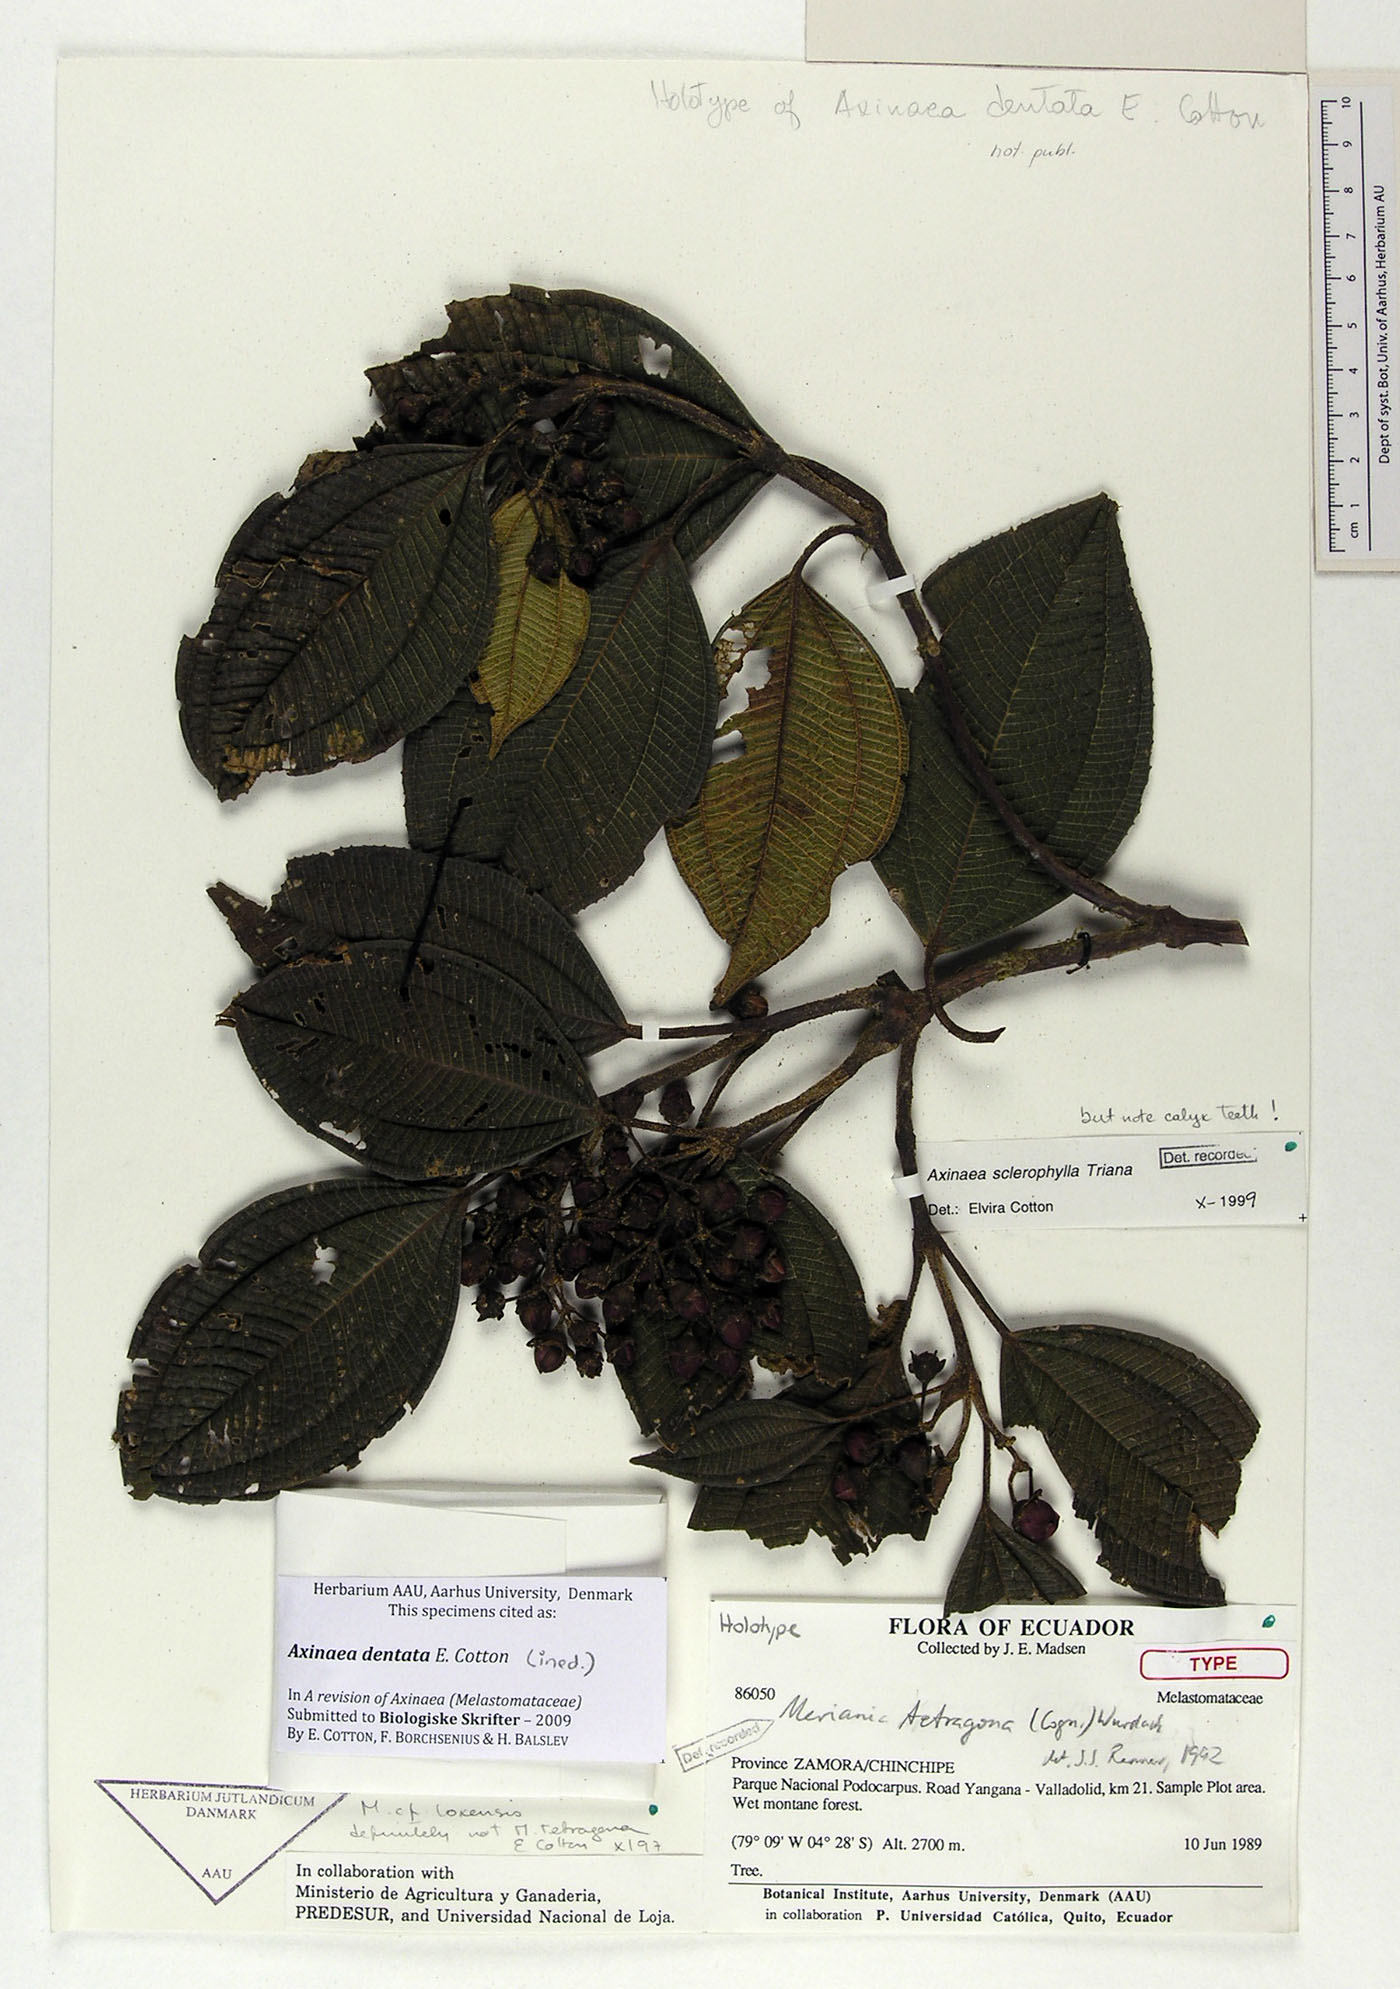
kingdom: Plantae
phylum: Tracheophyta
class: Magnoliopsida
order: Myrtales
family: Melastomataceae
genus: Axinaea
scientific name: Axinaea dentata
